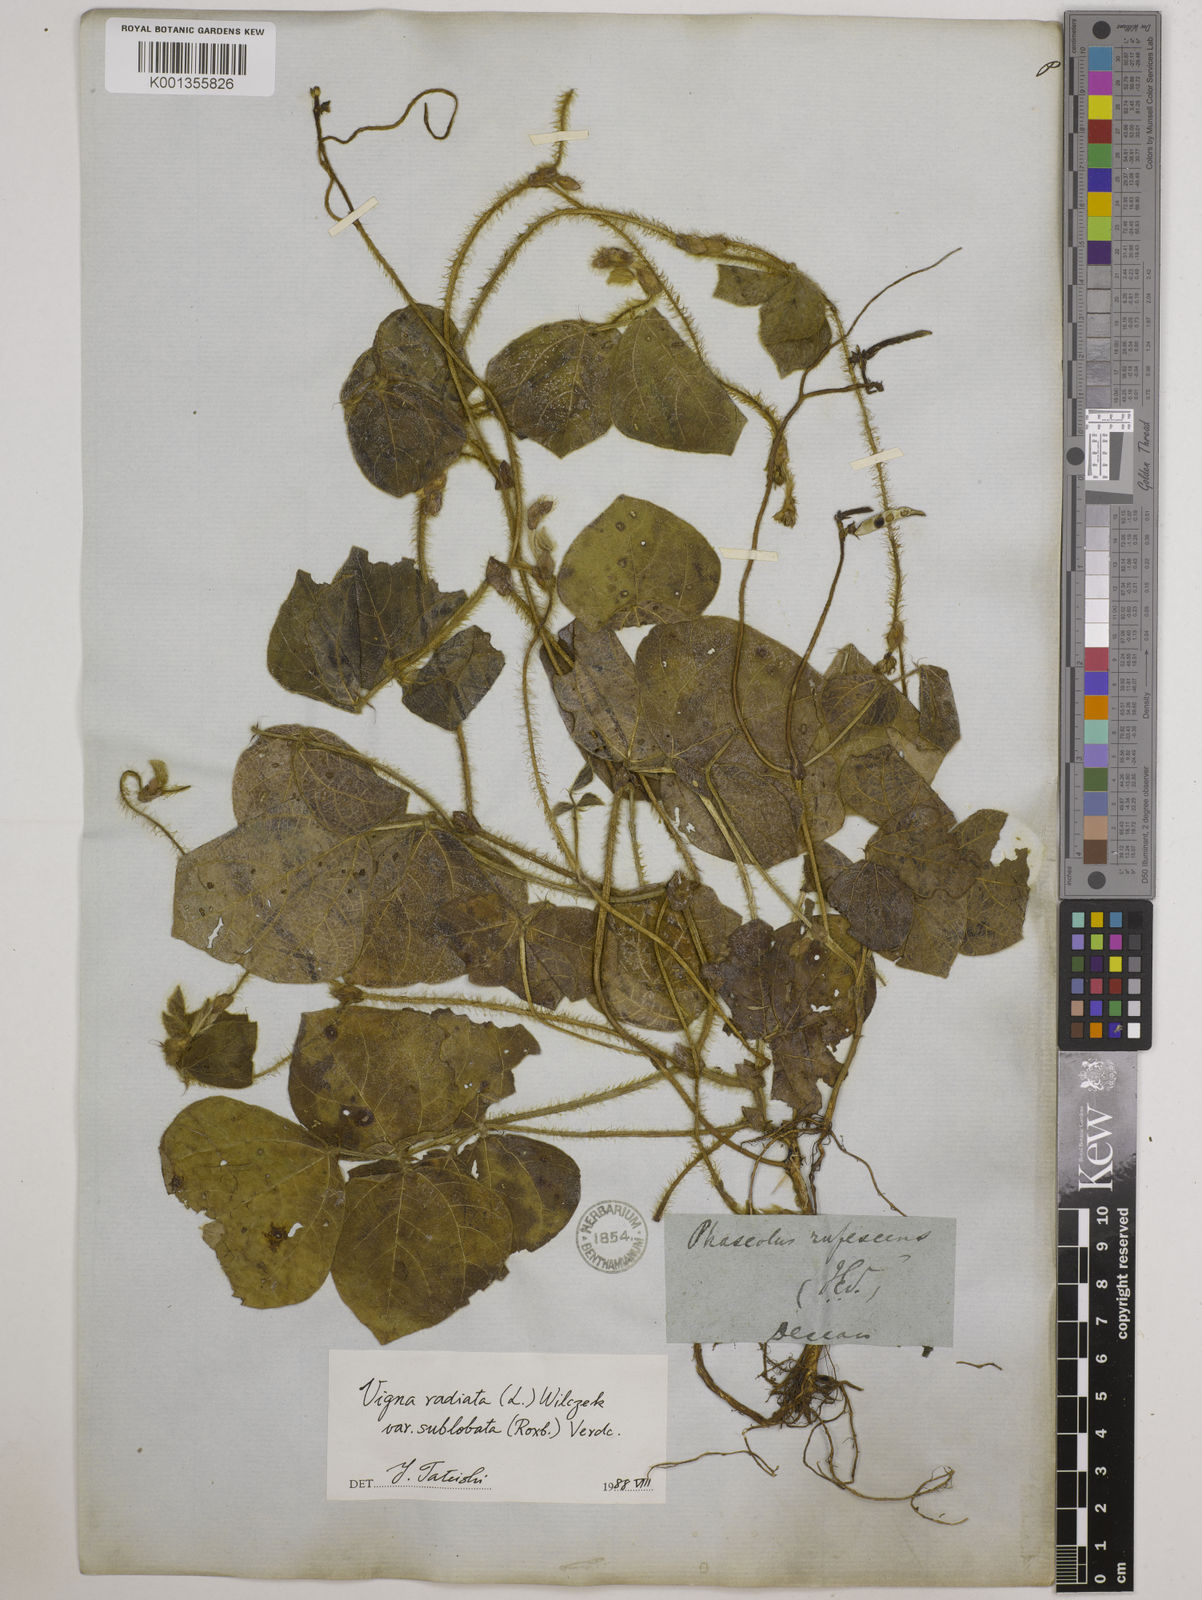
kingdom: Plantae
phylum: Tracheophyta
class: Magnoliopsida
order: Fabales
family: Fabaceae
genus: Vigna
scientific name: Vigna radiata
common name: Mung-bean
